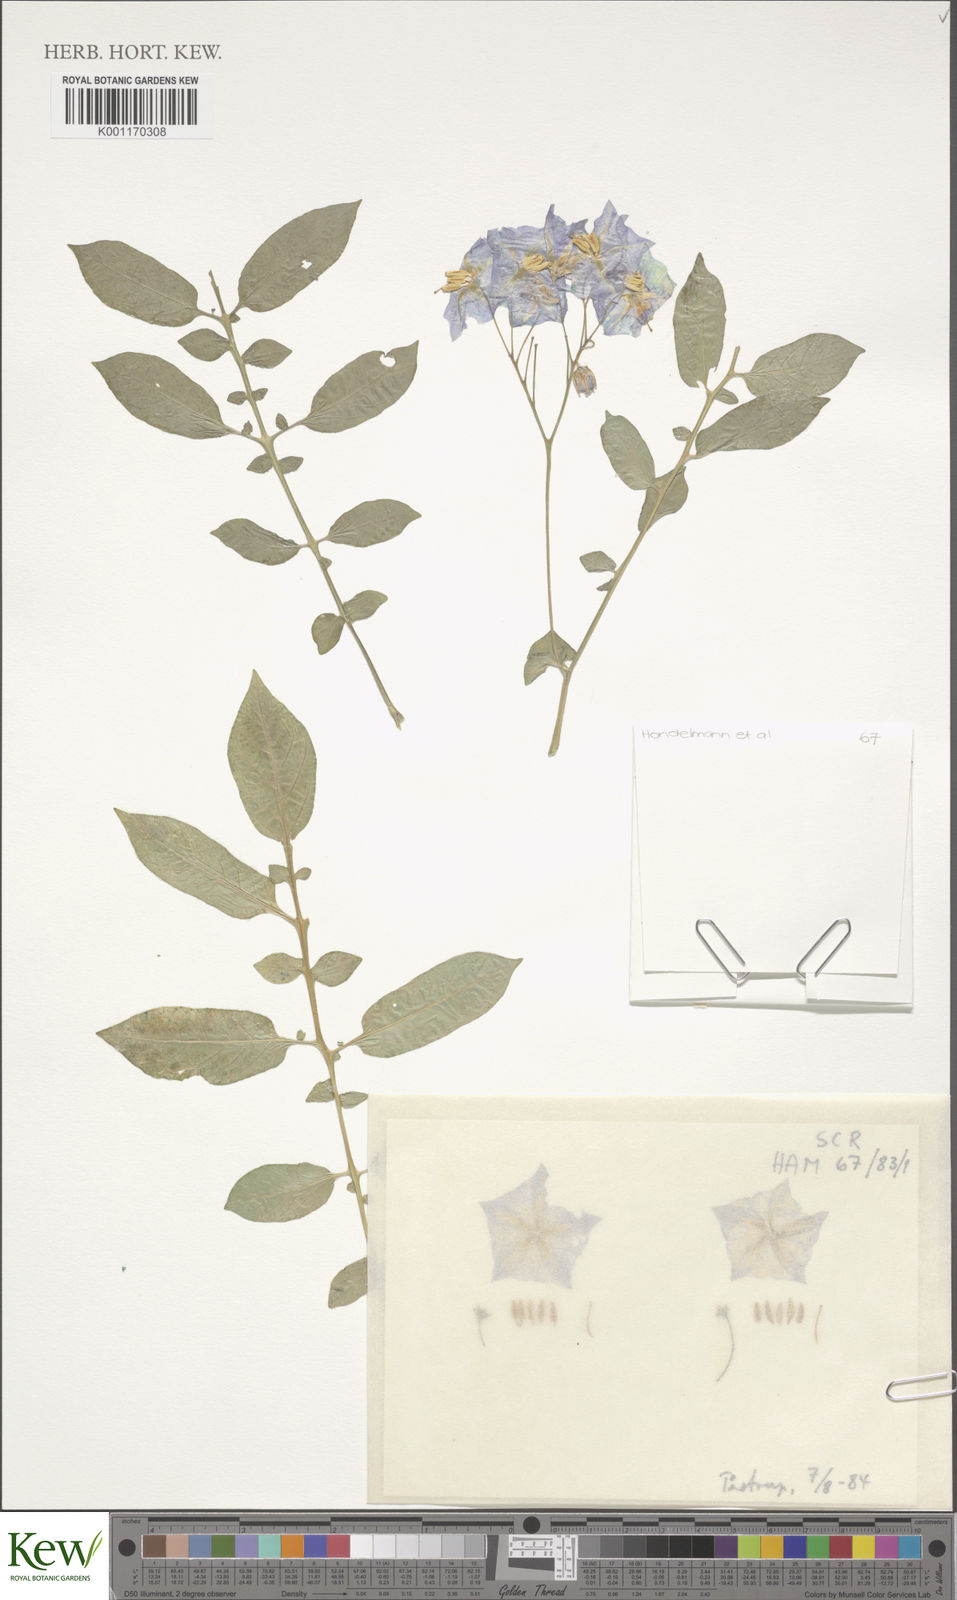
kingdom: Plantae
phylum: Tracheophyta
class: Magnoliopsida
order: Solanales
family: Solanaceae
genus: Solanum
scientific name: Solanum brevicaule
